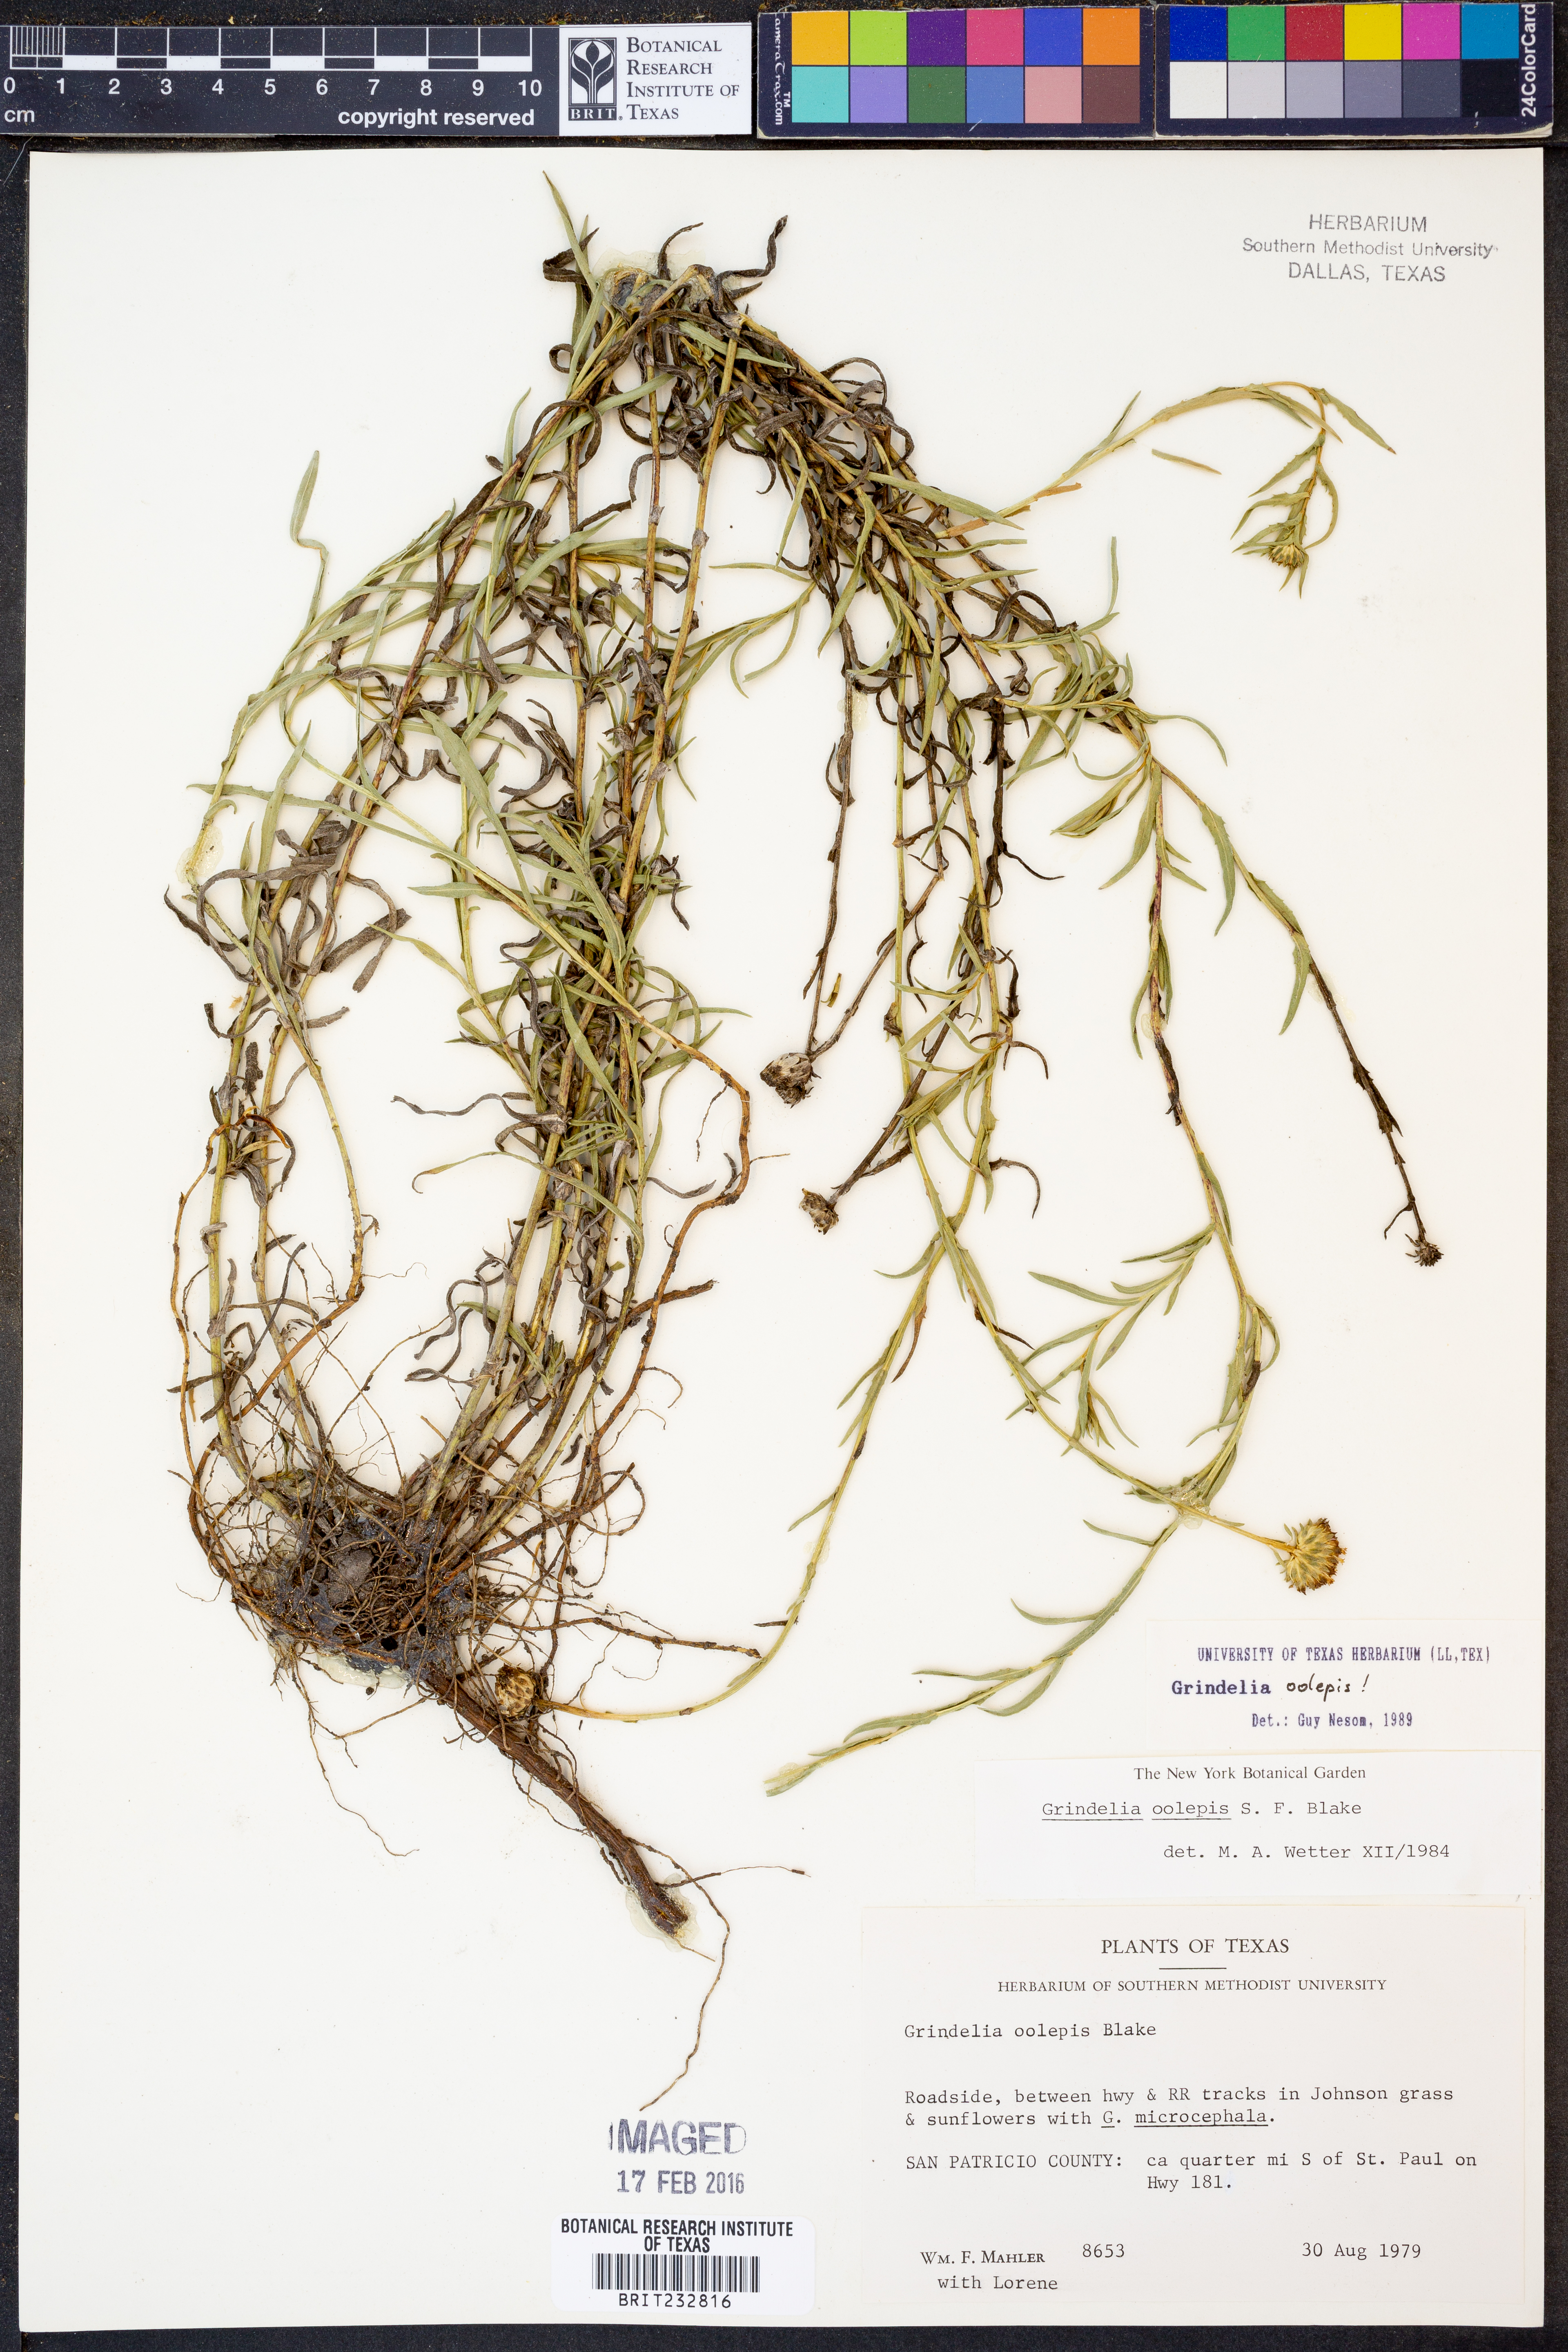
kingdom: Plantae
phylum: Tracheophyta
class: Magnoliopsida
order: Asterales
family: Asteraceae
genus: Grindelia
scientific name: Grindelia oolepis
